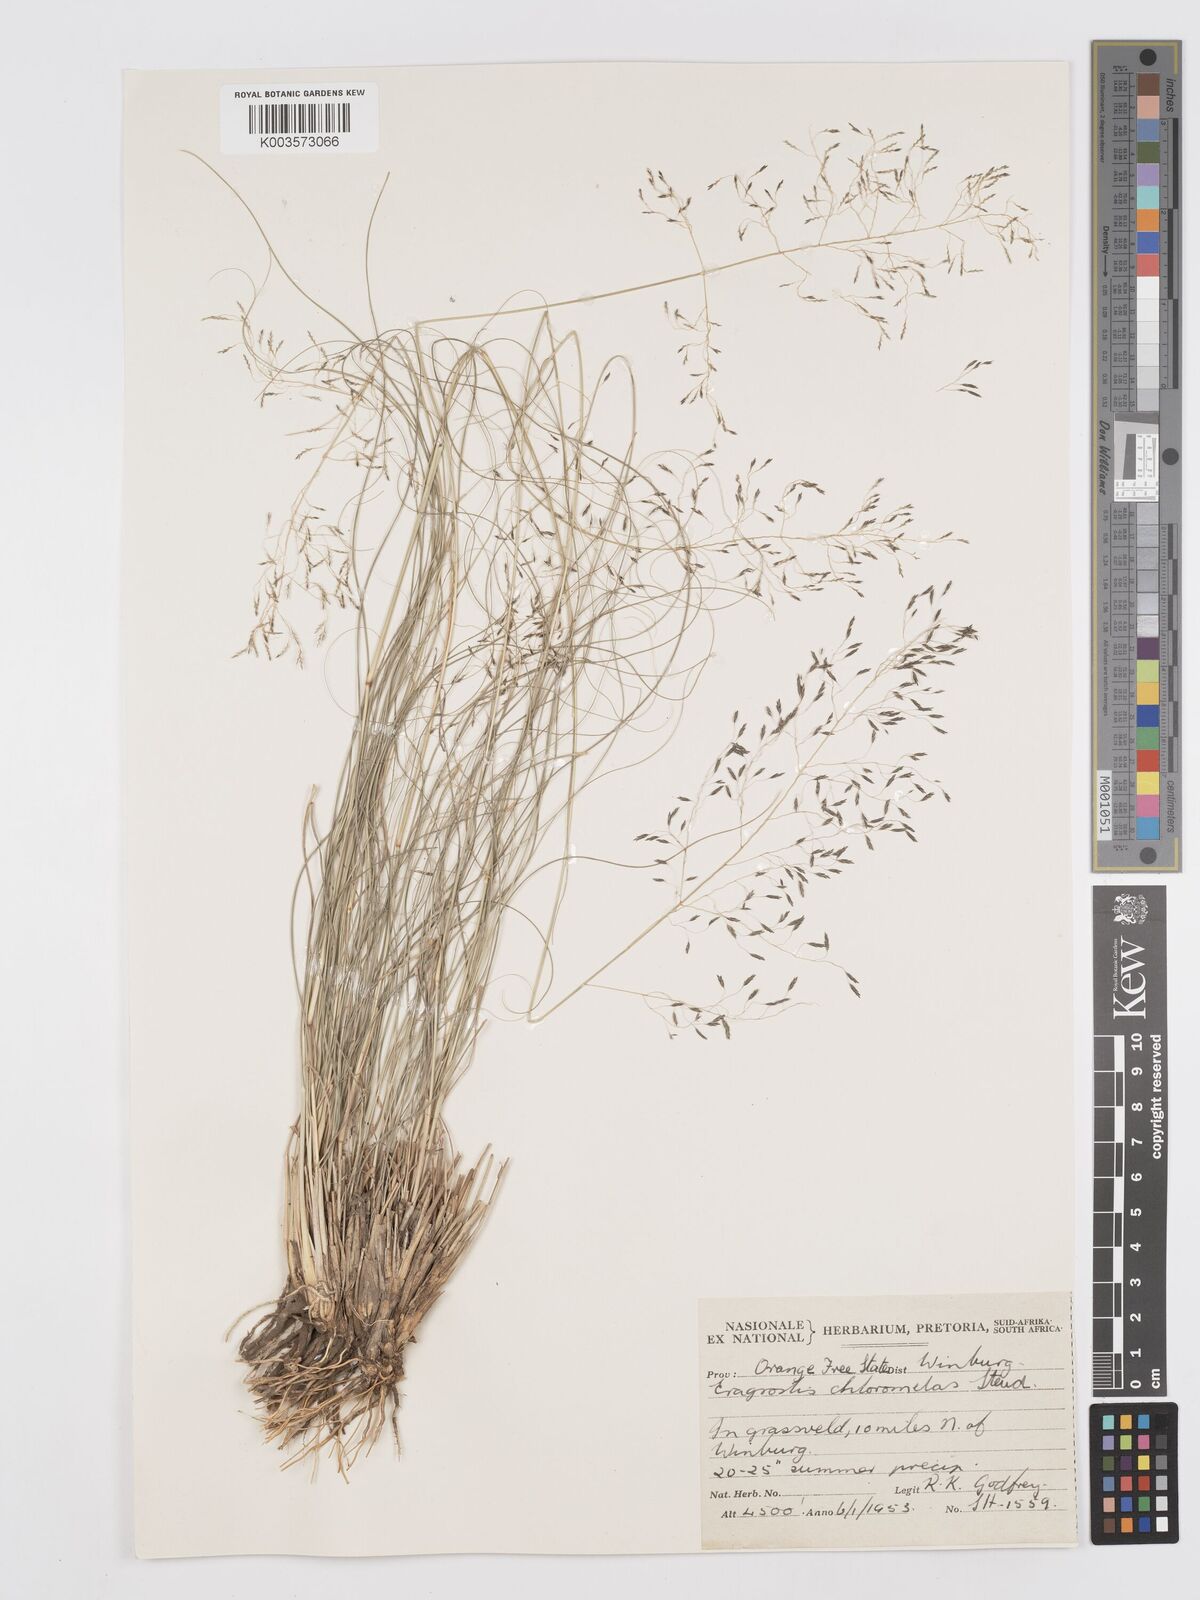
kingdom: Plantae
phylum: Tracheophyta
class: Liliopsida
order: Poales
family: Poaceae
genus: Eragrostis
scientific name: Eragrostis curvula
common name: African love-grass
